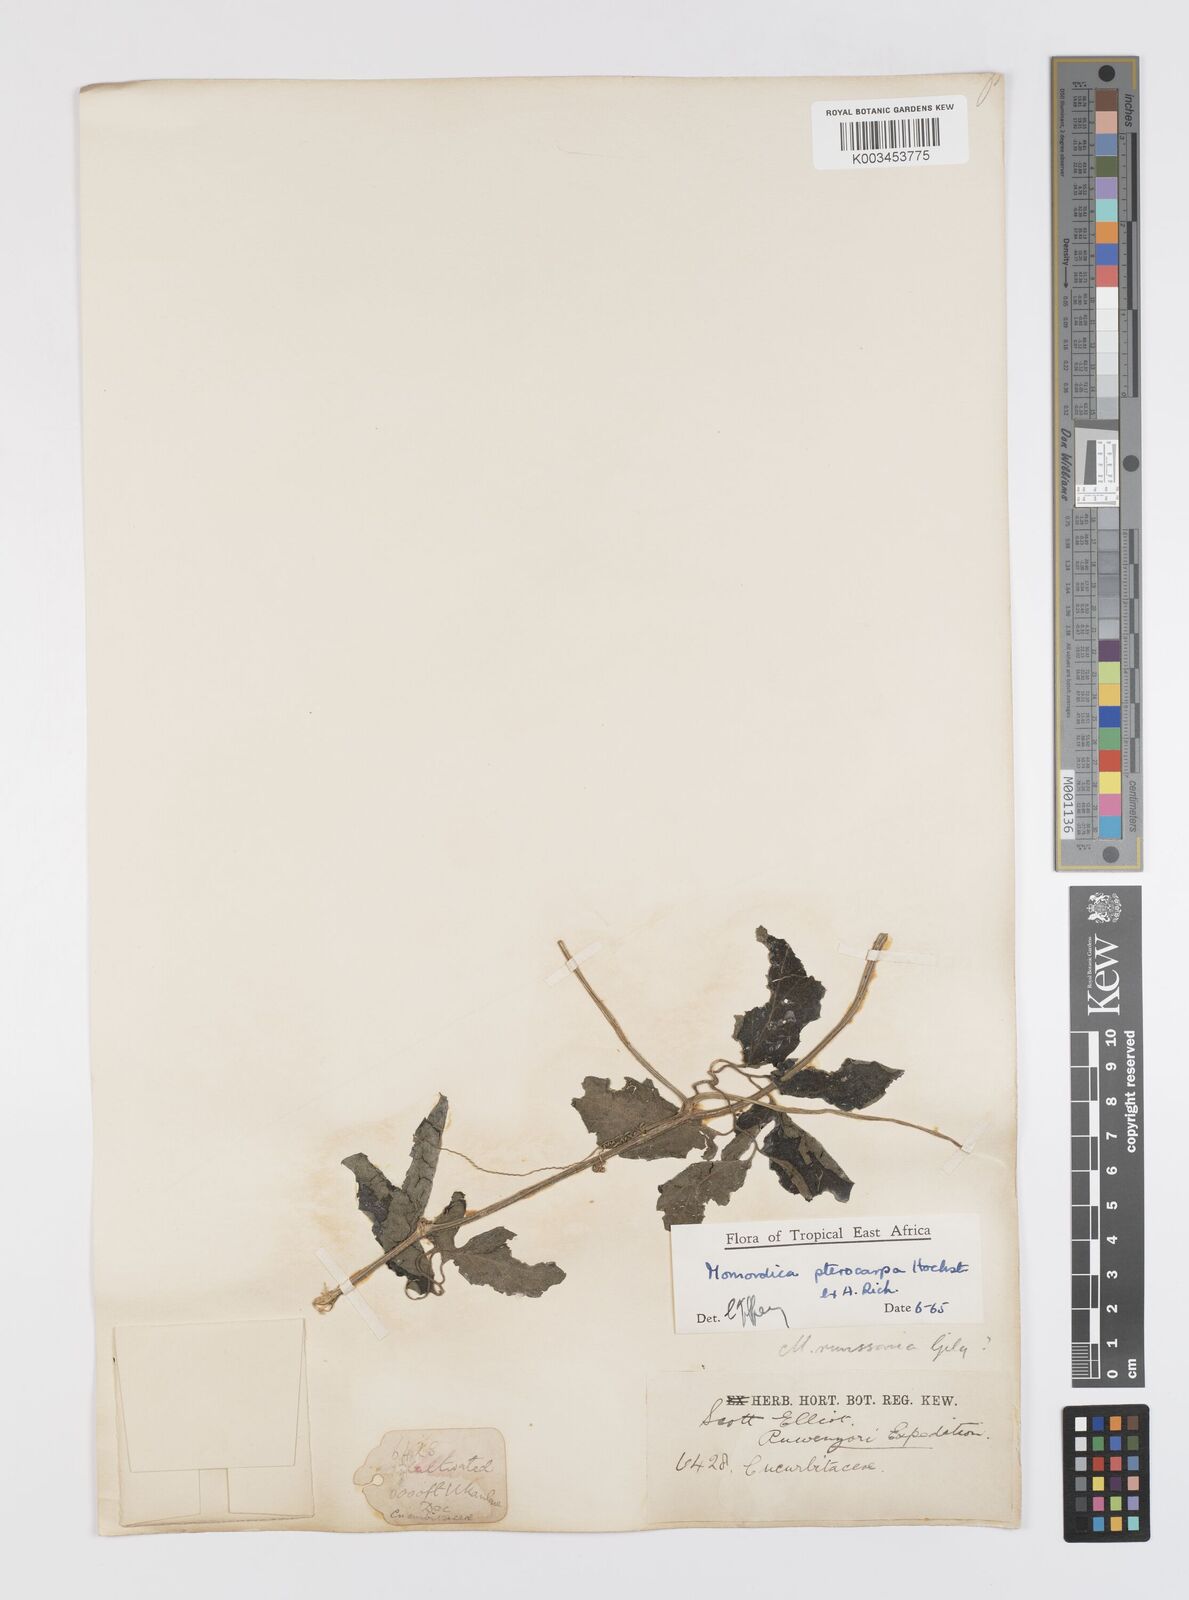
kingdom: Plantae
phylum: Tracheophyta
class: Magnoliopsida
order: Cucurbitales
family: Cucurbitaceae
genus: Momordica
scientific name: Momordica pterocarpa
